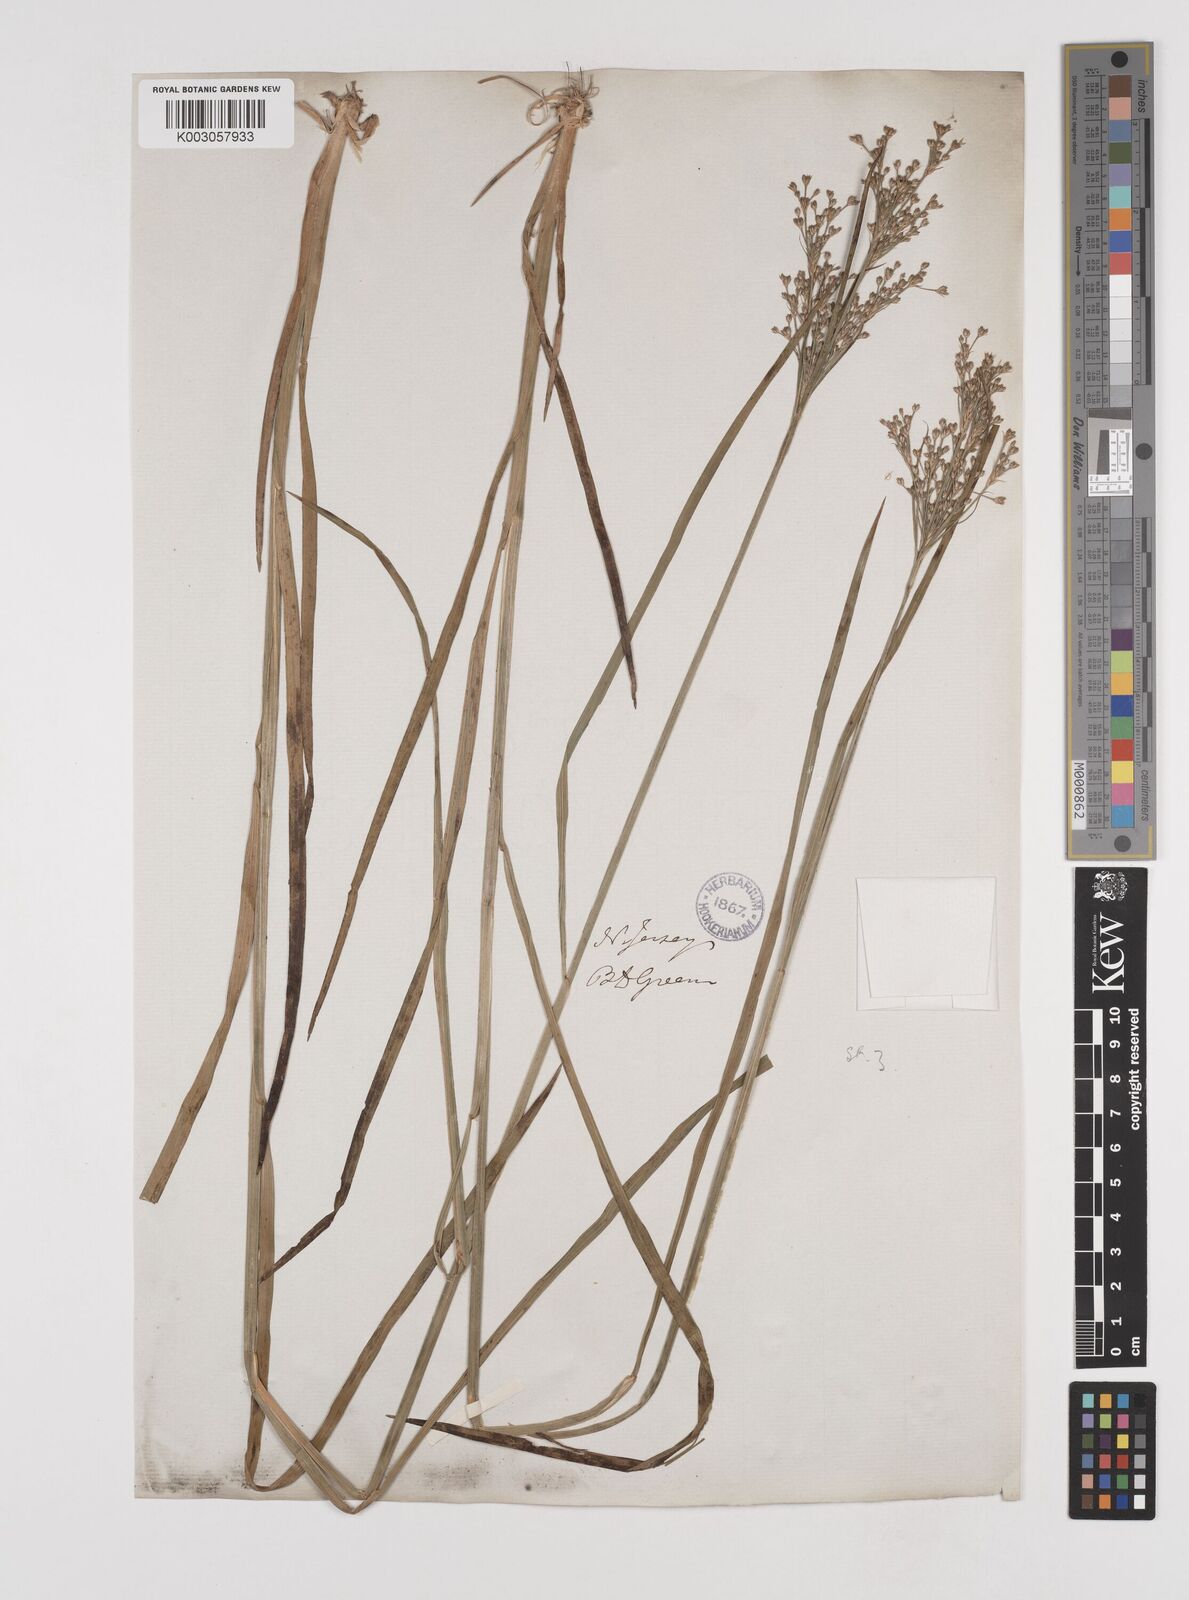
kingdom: Plantae
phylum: Tracheophyta
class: Liliopsida
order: Poales
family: Juncaceae
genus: Juncus
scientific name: Juncus marginatus
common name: Grass-leaf rush
